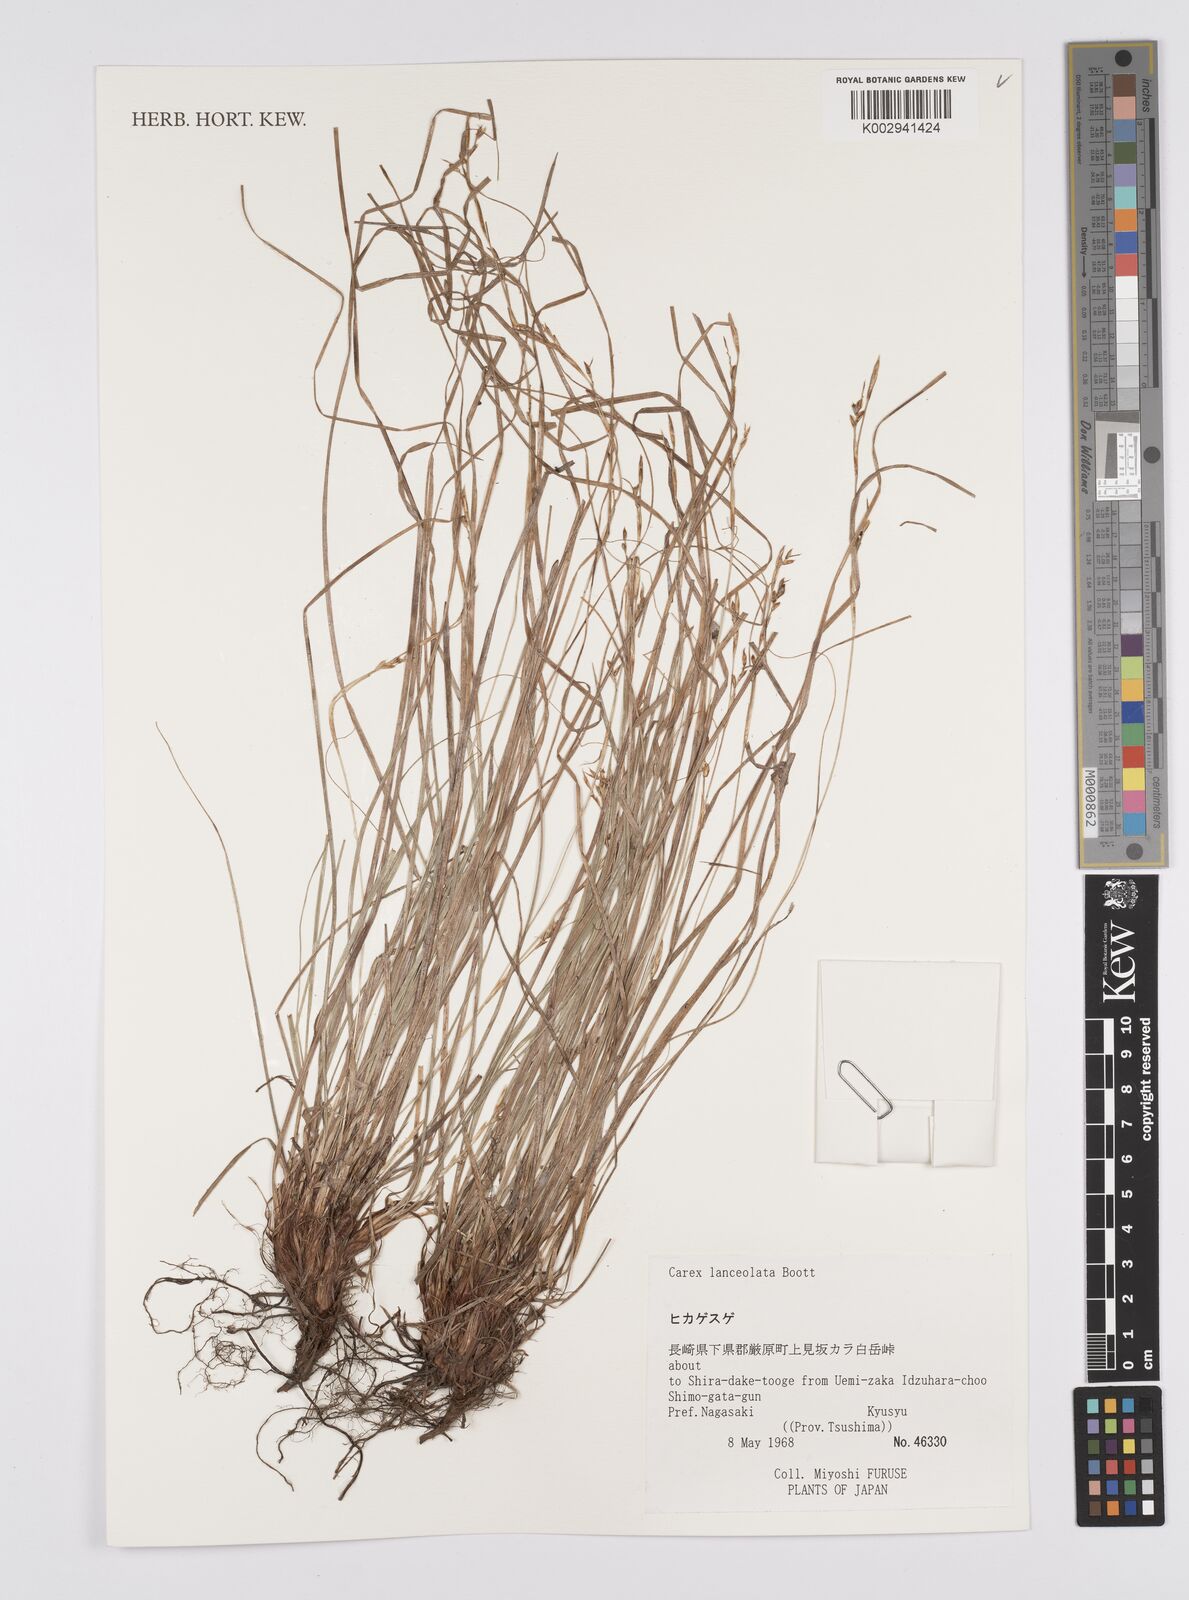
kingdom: Plantae
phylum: Tracheophyta
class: Liliopsida
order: Poales
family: Cyperaceae
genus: Carex
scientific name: Carex lanceolata
